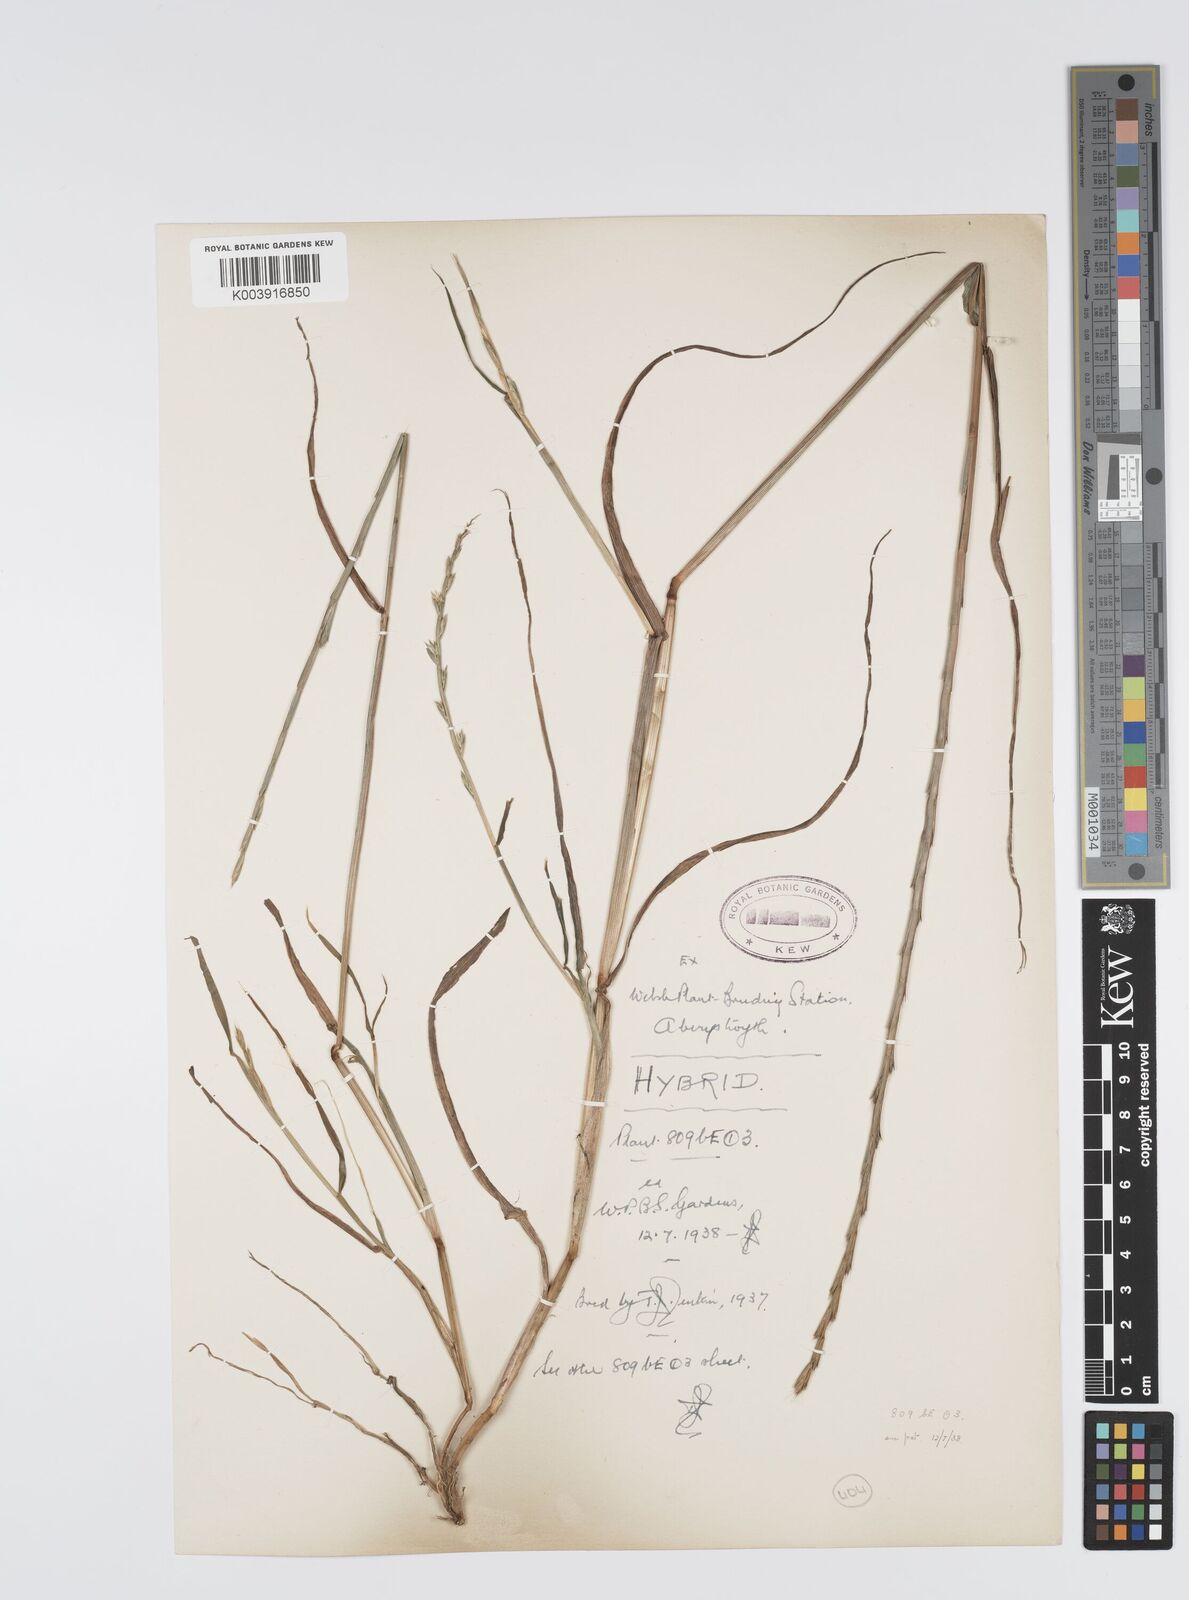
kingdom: Plantae
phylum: Tracheophyta
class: Liliopsida
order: Poales
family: Poaceae
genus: Lolium
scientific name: Lolium multiflorum
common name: Annual ryegrass
